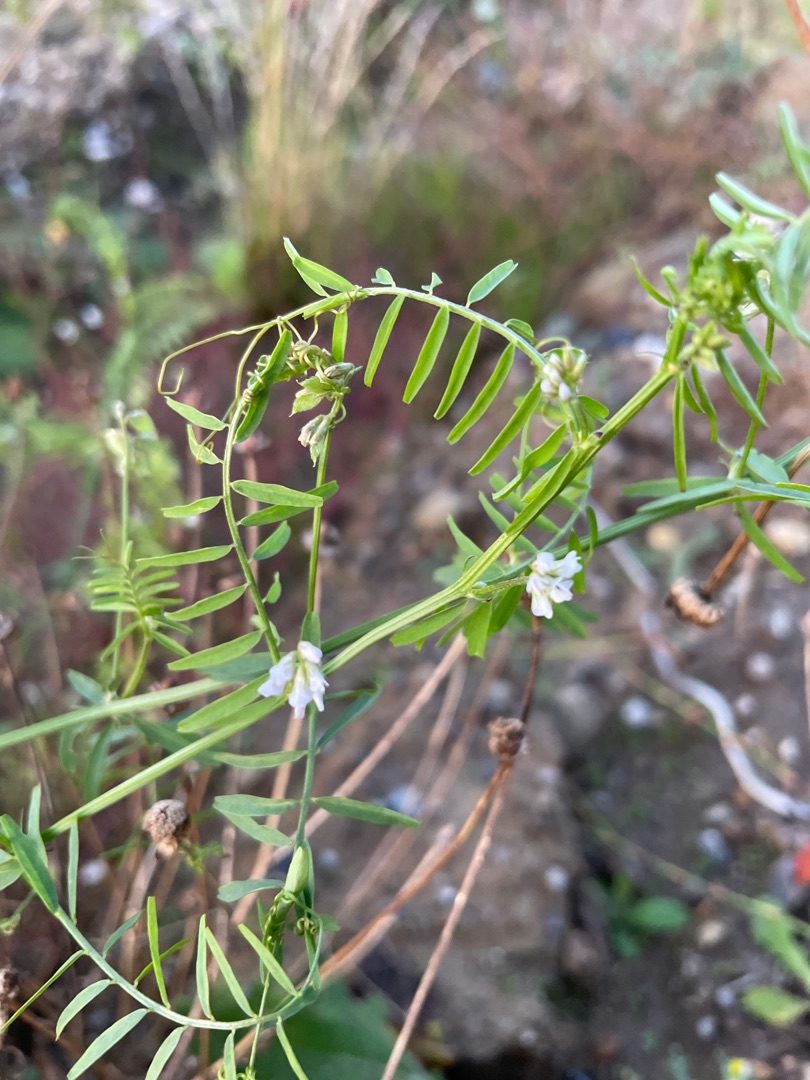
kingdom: Plantae
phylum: Tracheophyta
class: Magnoliopsida
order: Fabales
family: Fabaceae
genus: Vicia
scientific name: Vicia hirsuta
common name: Tofrøet vikke
